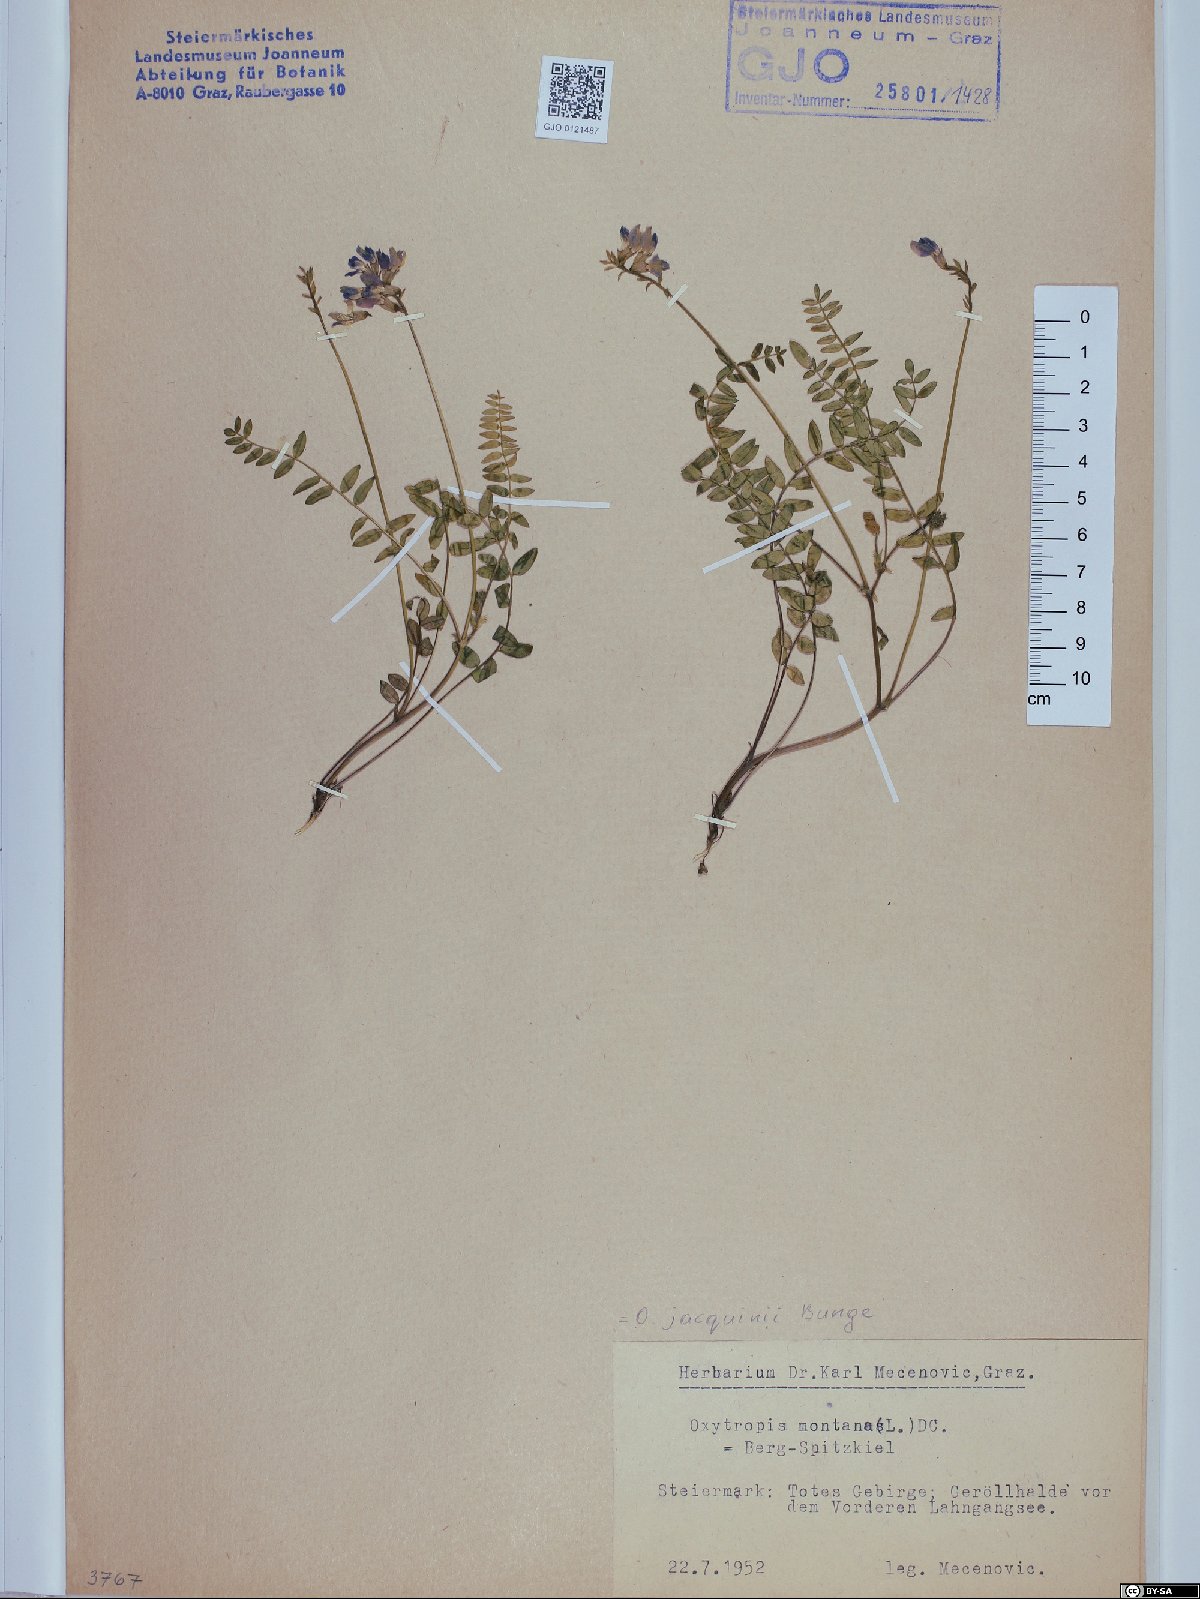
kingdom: Plantae
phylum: Tracheophyta
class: Magnoliopsida
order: Fabales
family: Fabaceae
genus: Oxytropis
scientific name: Oxytropis montana
